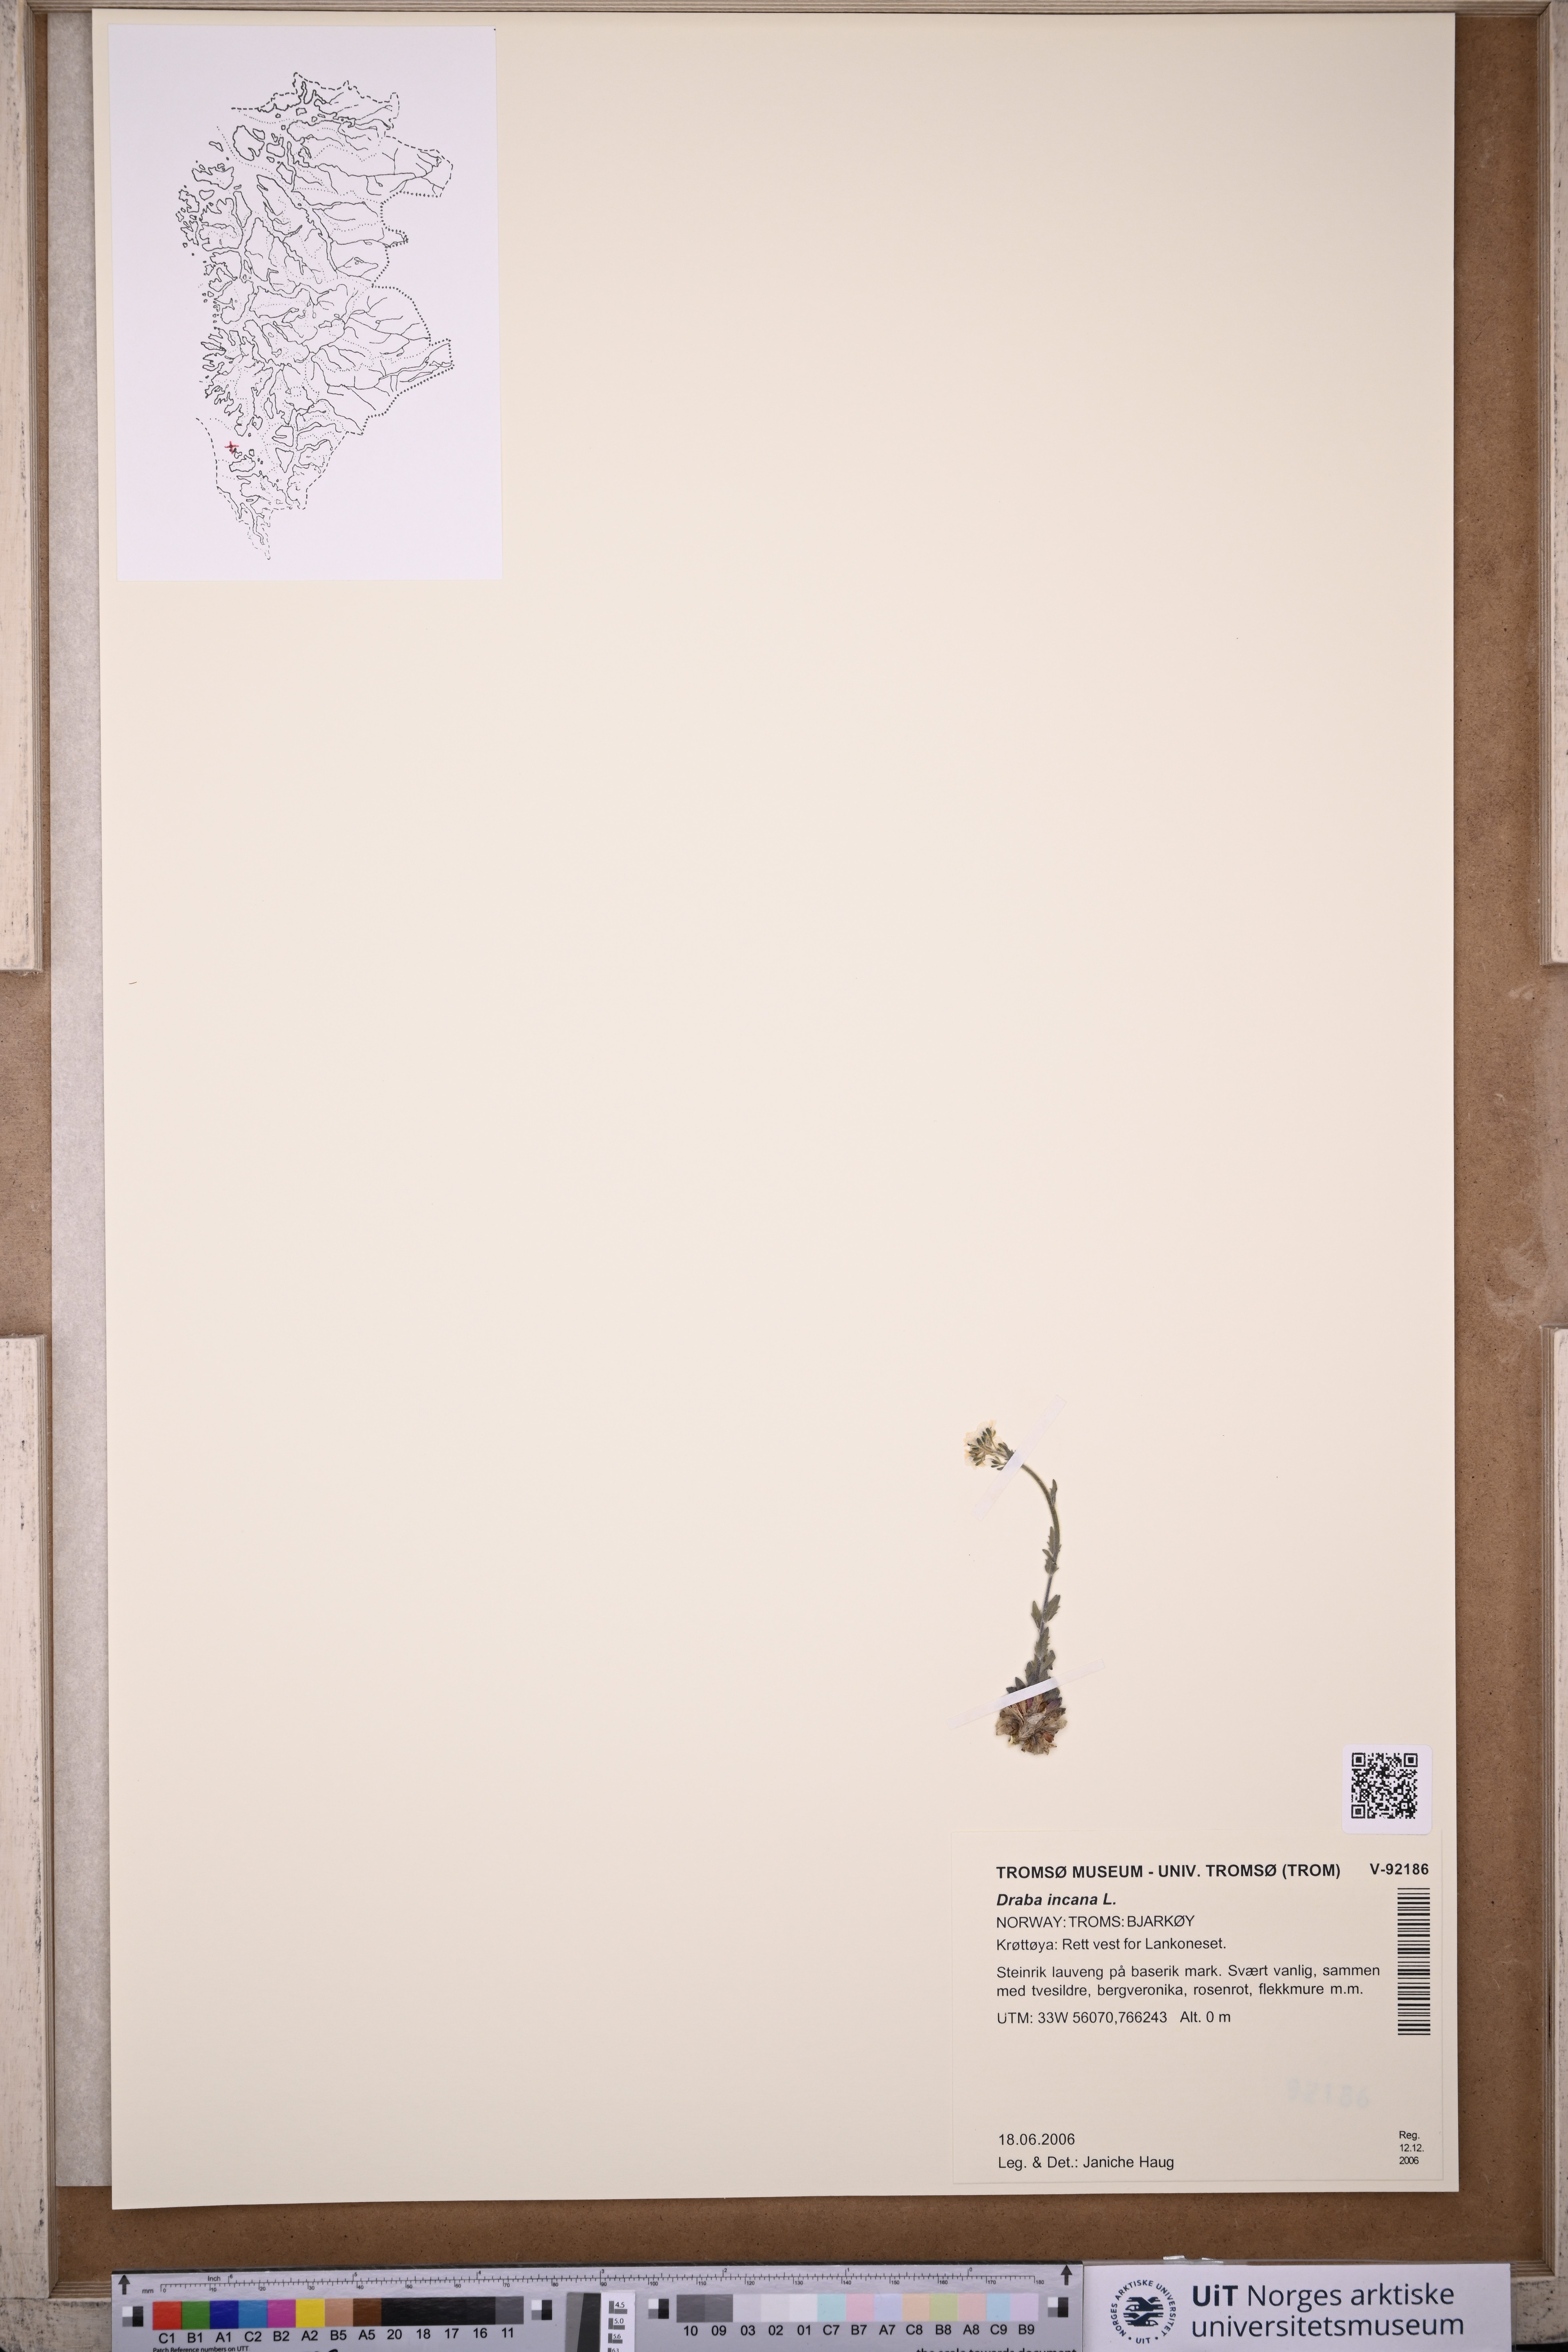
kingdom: Plantae
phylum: Tracheophyta
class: Magnoliopsida
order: Brassicales
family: Brassicaceae
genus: Draba
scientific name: Draba incana
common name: Hoary whitlow-grass
